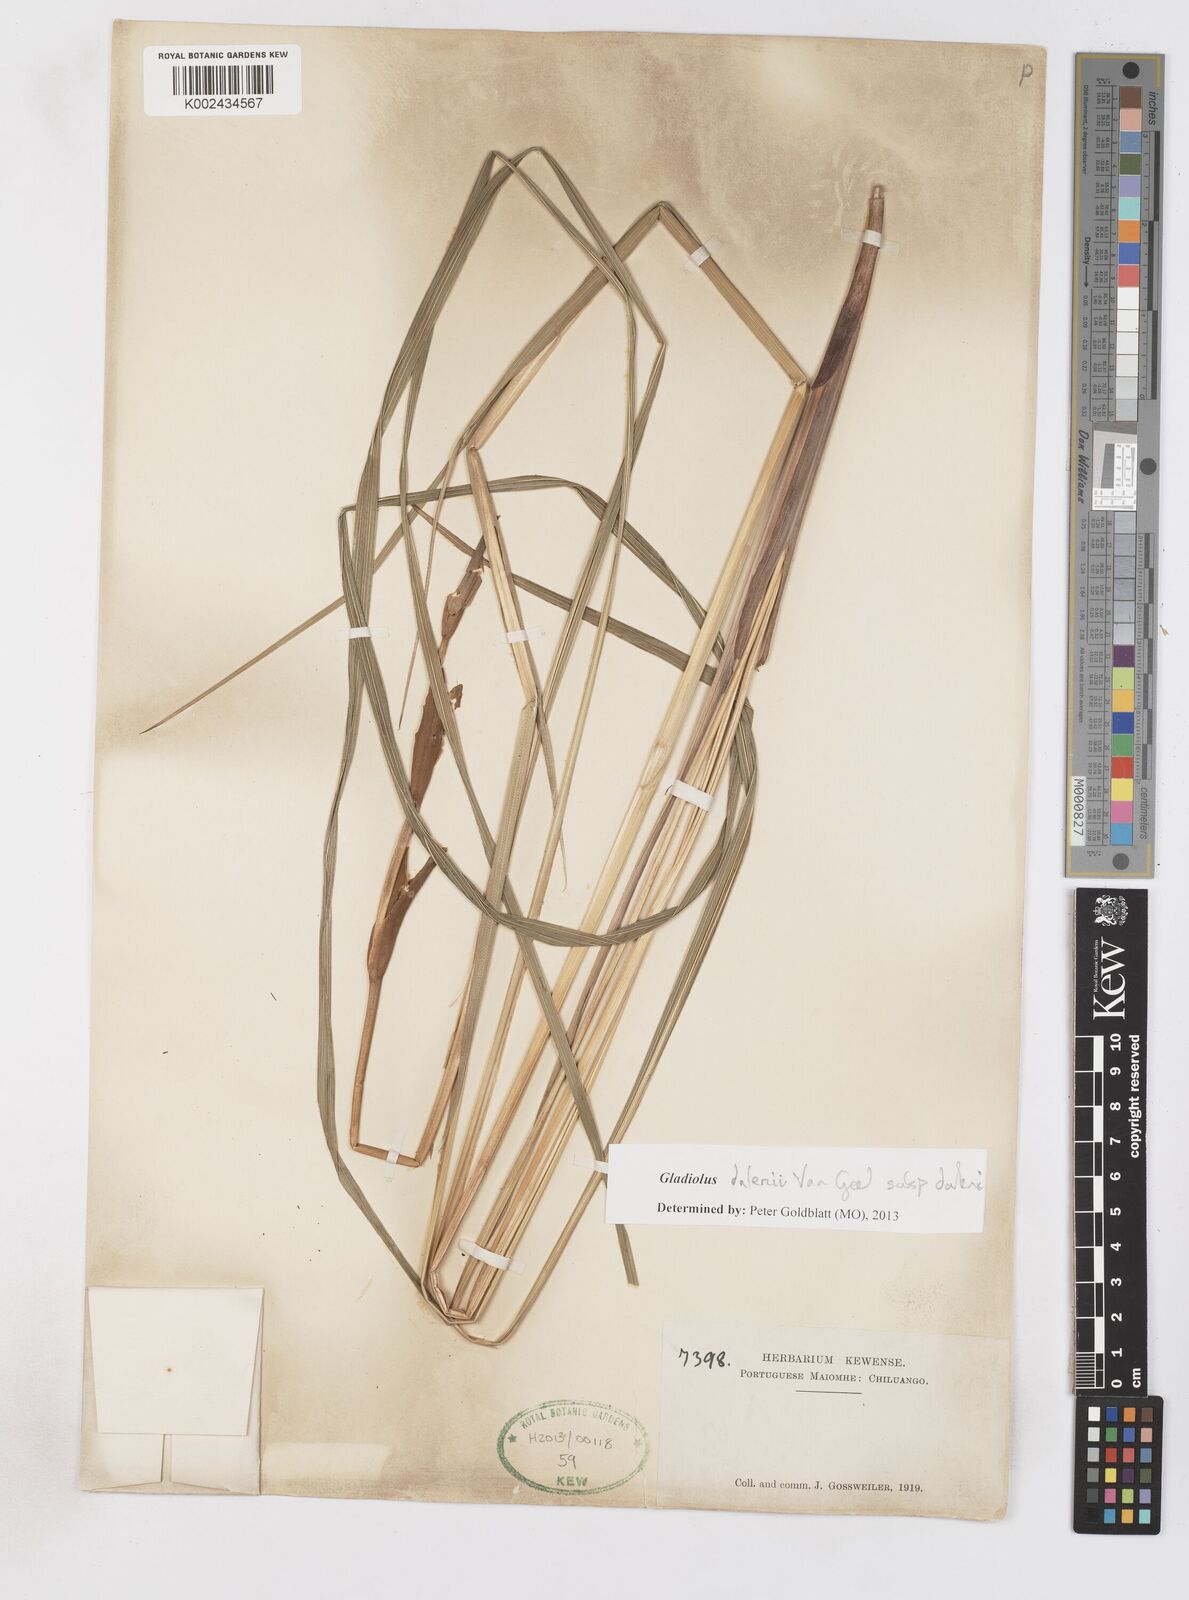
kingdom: Plantae
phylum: Tracheophyta
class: Liliopsida
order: Asparagales
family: Iridaceae
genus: Gladiolus
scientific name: Gladiolus dalenii
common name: Cornflag
